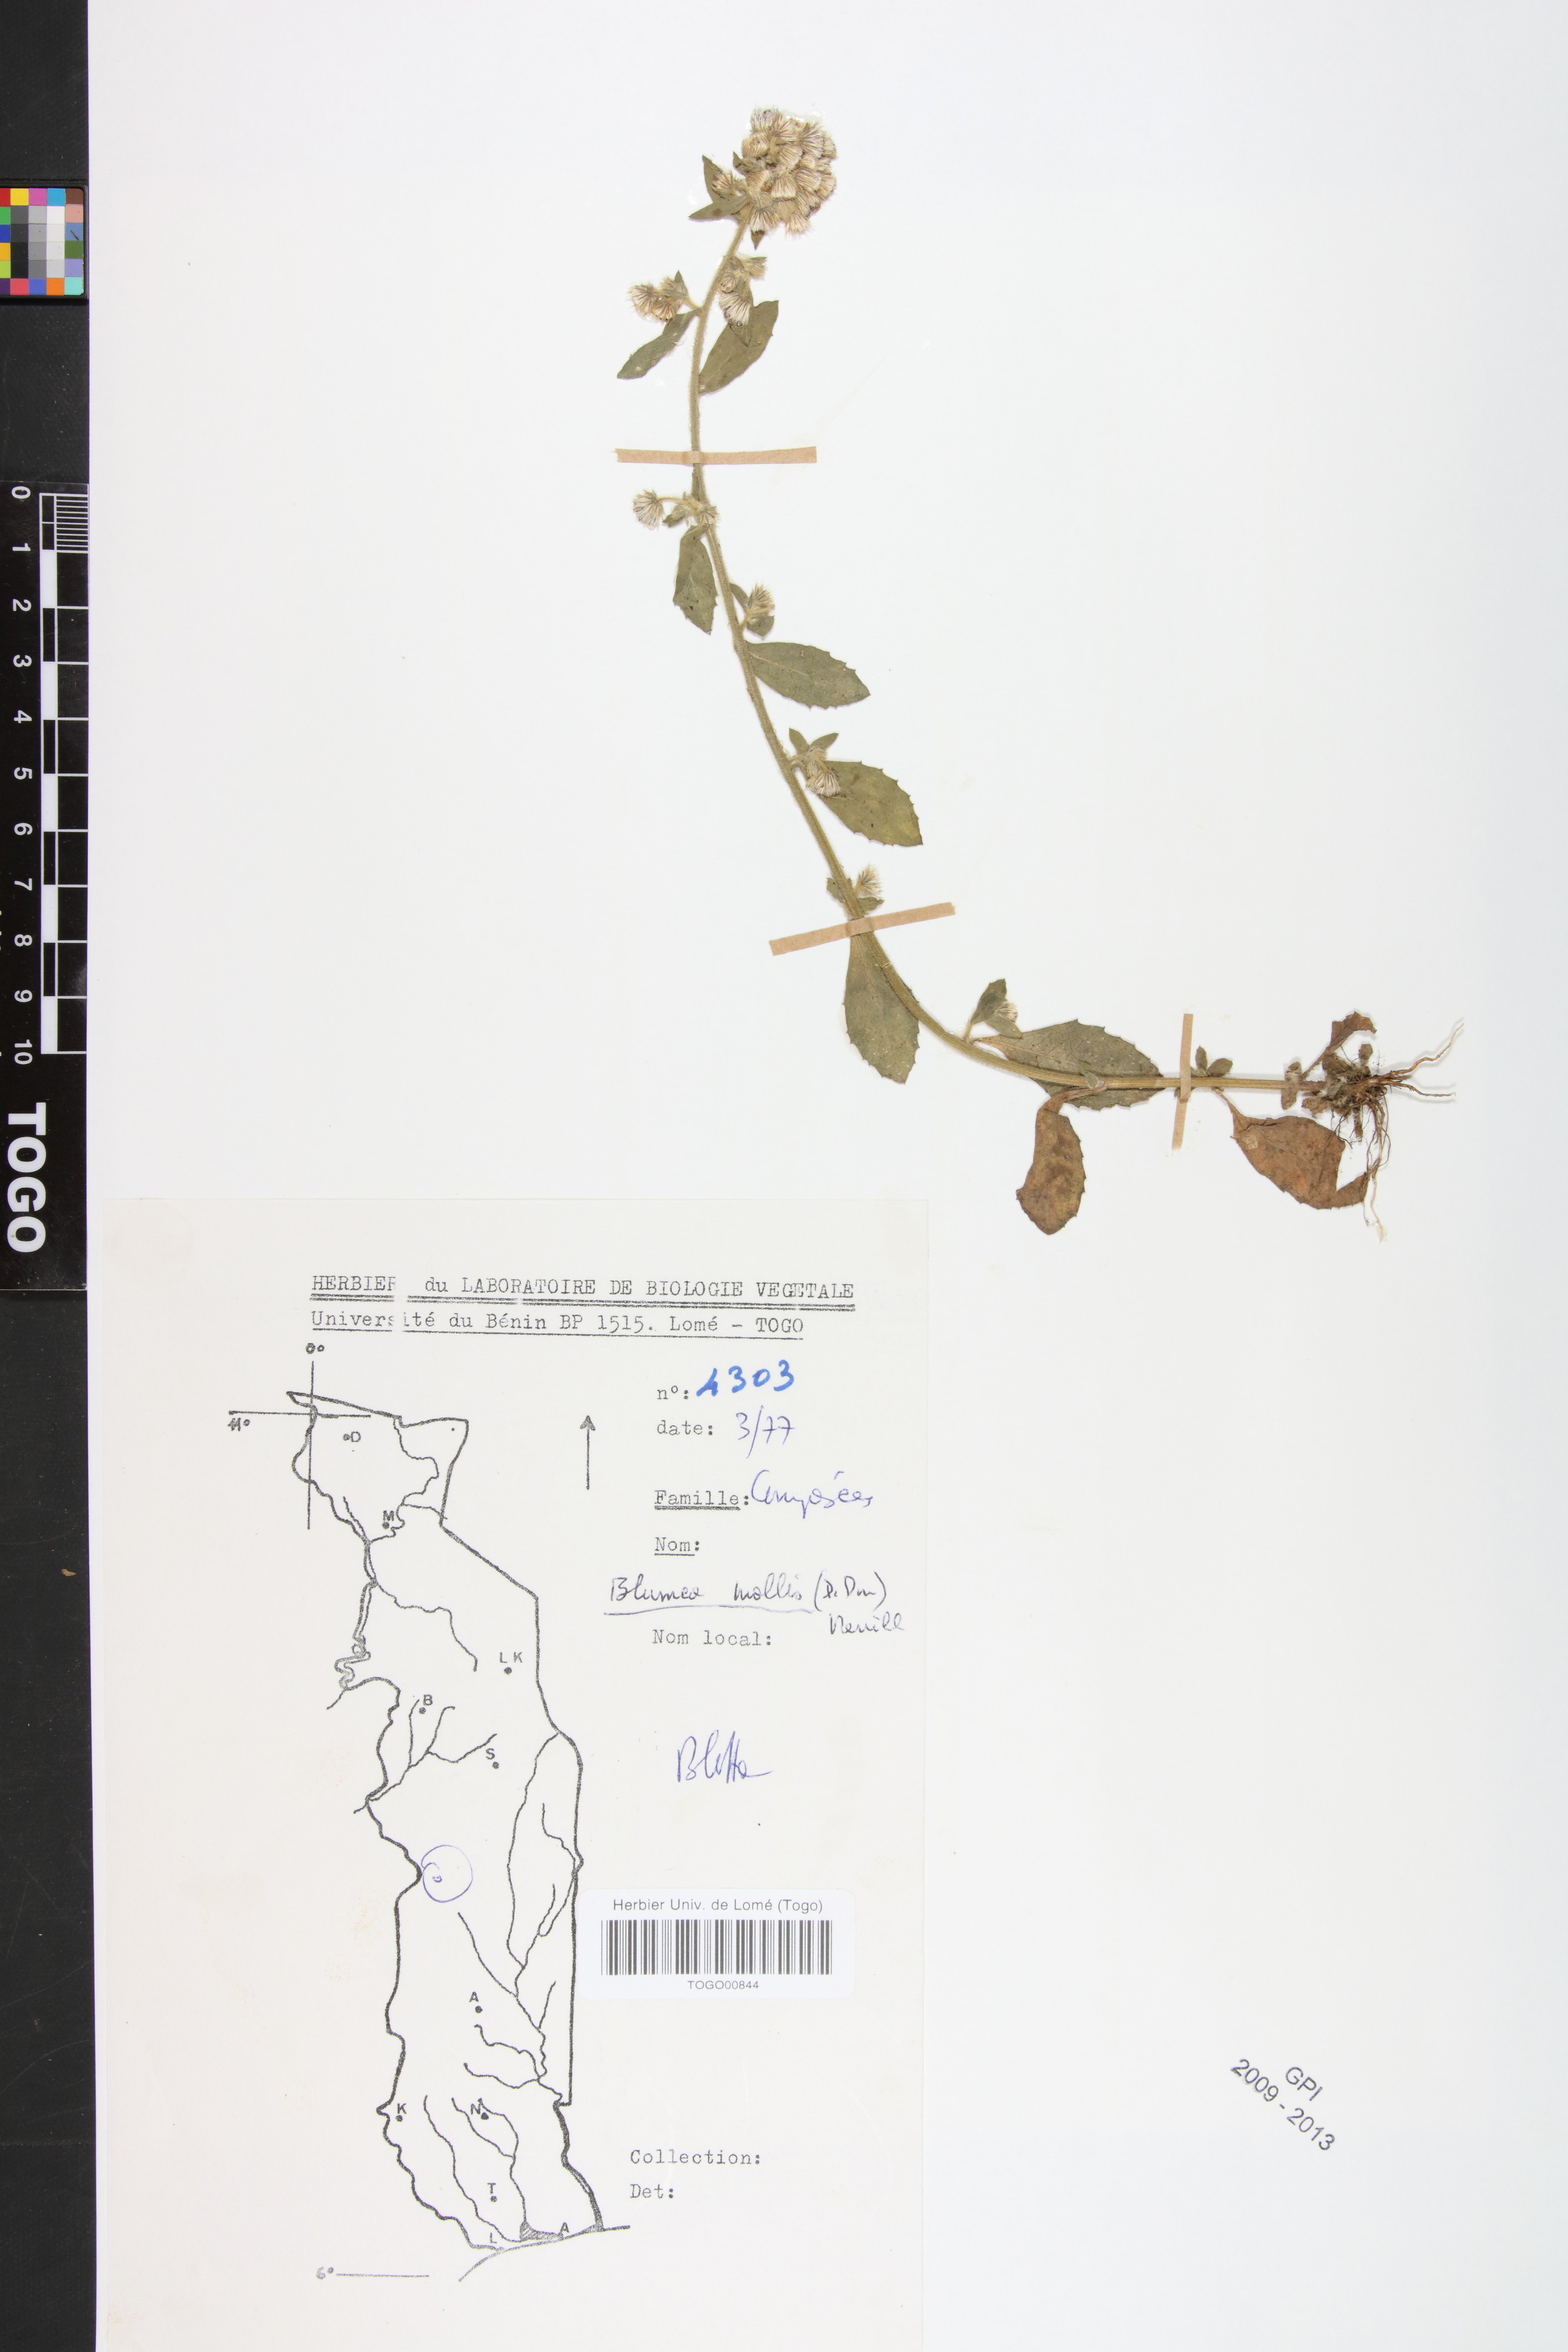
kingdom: Plantae
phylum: Tracheophyta
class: Magnoliopsida
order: Asterales
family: Asteraceae
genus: Blumea
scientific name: Blumea axillaris
